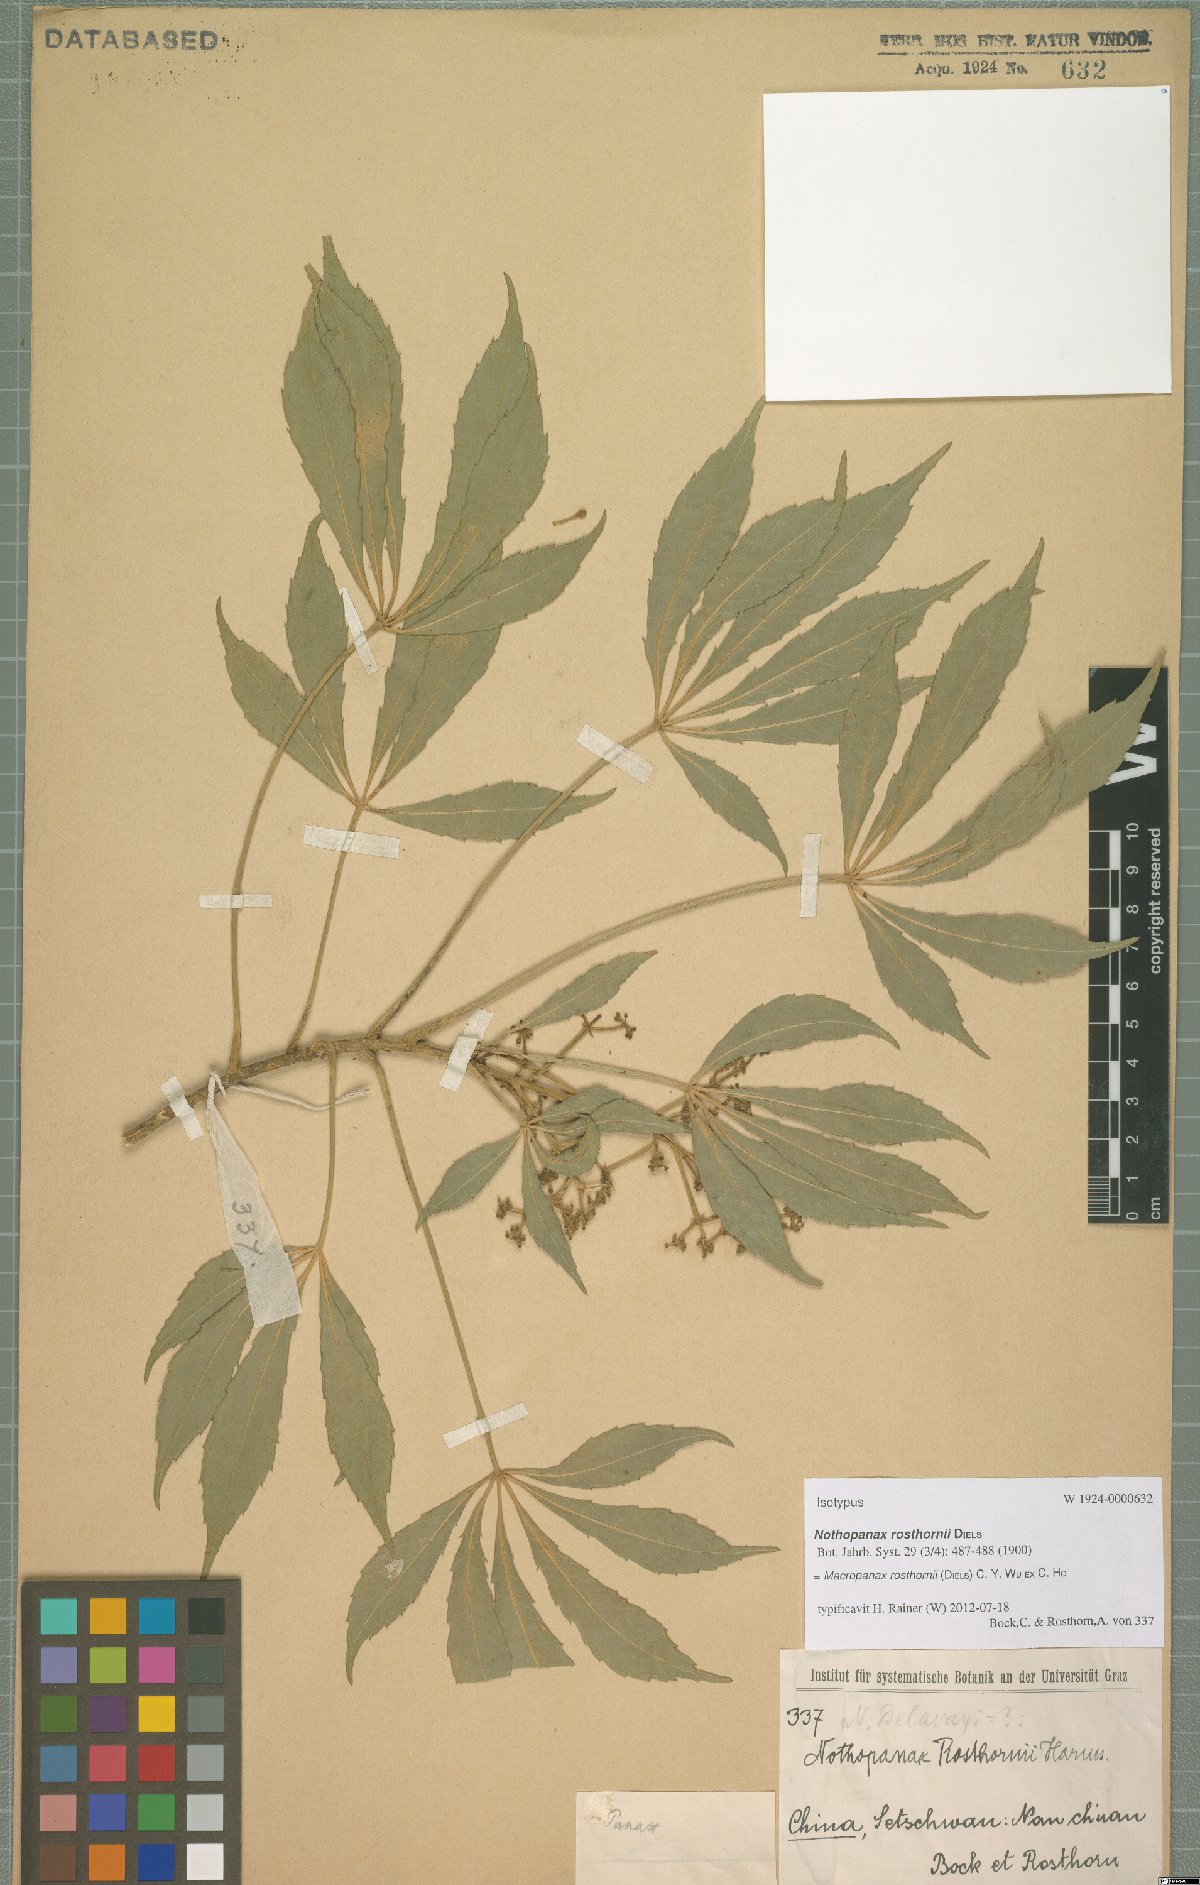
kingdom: Plantae
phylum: Tracheophyta
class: Magnoliopsida
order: Apiales
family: Araliaceae
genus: Macropanax
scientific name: Macropanax rosthornii
